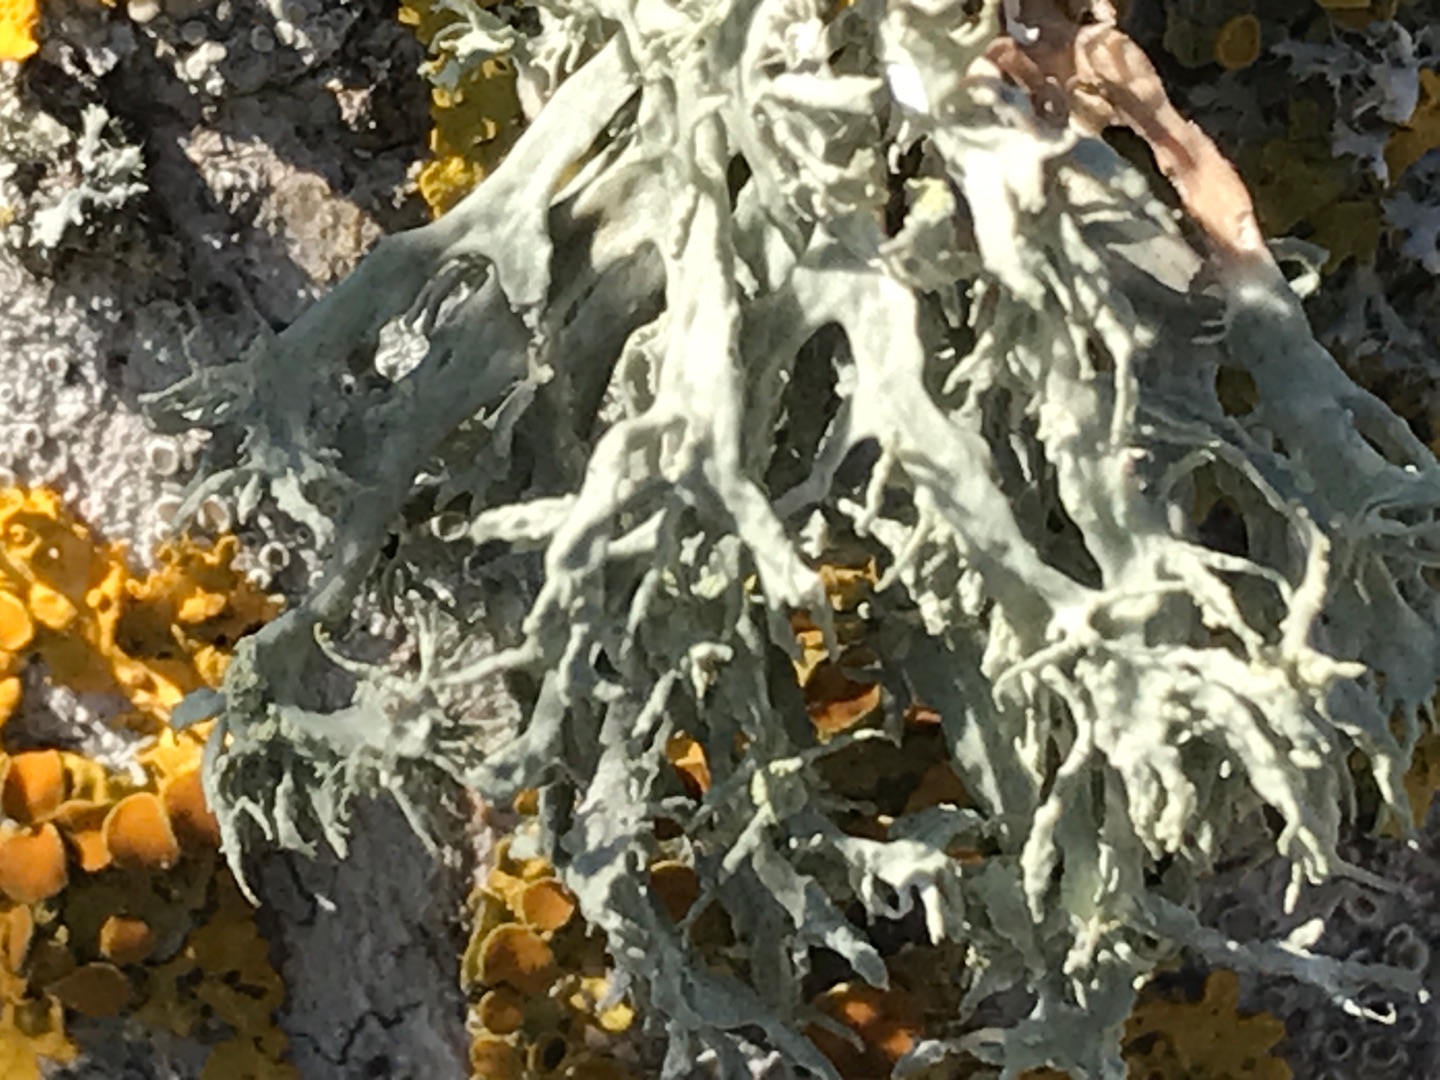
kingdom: Fungi
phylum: Ascomycota
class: Lecanoromycetes
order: Lecanorales
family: Ramalinaceae
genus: Ramalina
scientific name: Ramalina farinacea
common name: Melet grenlav
